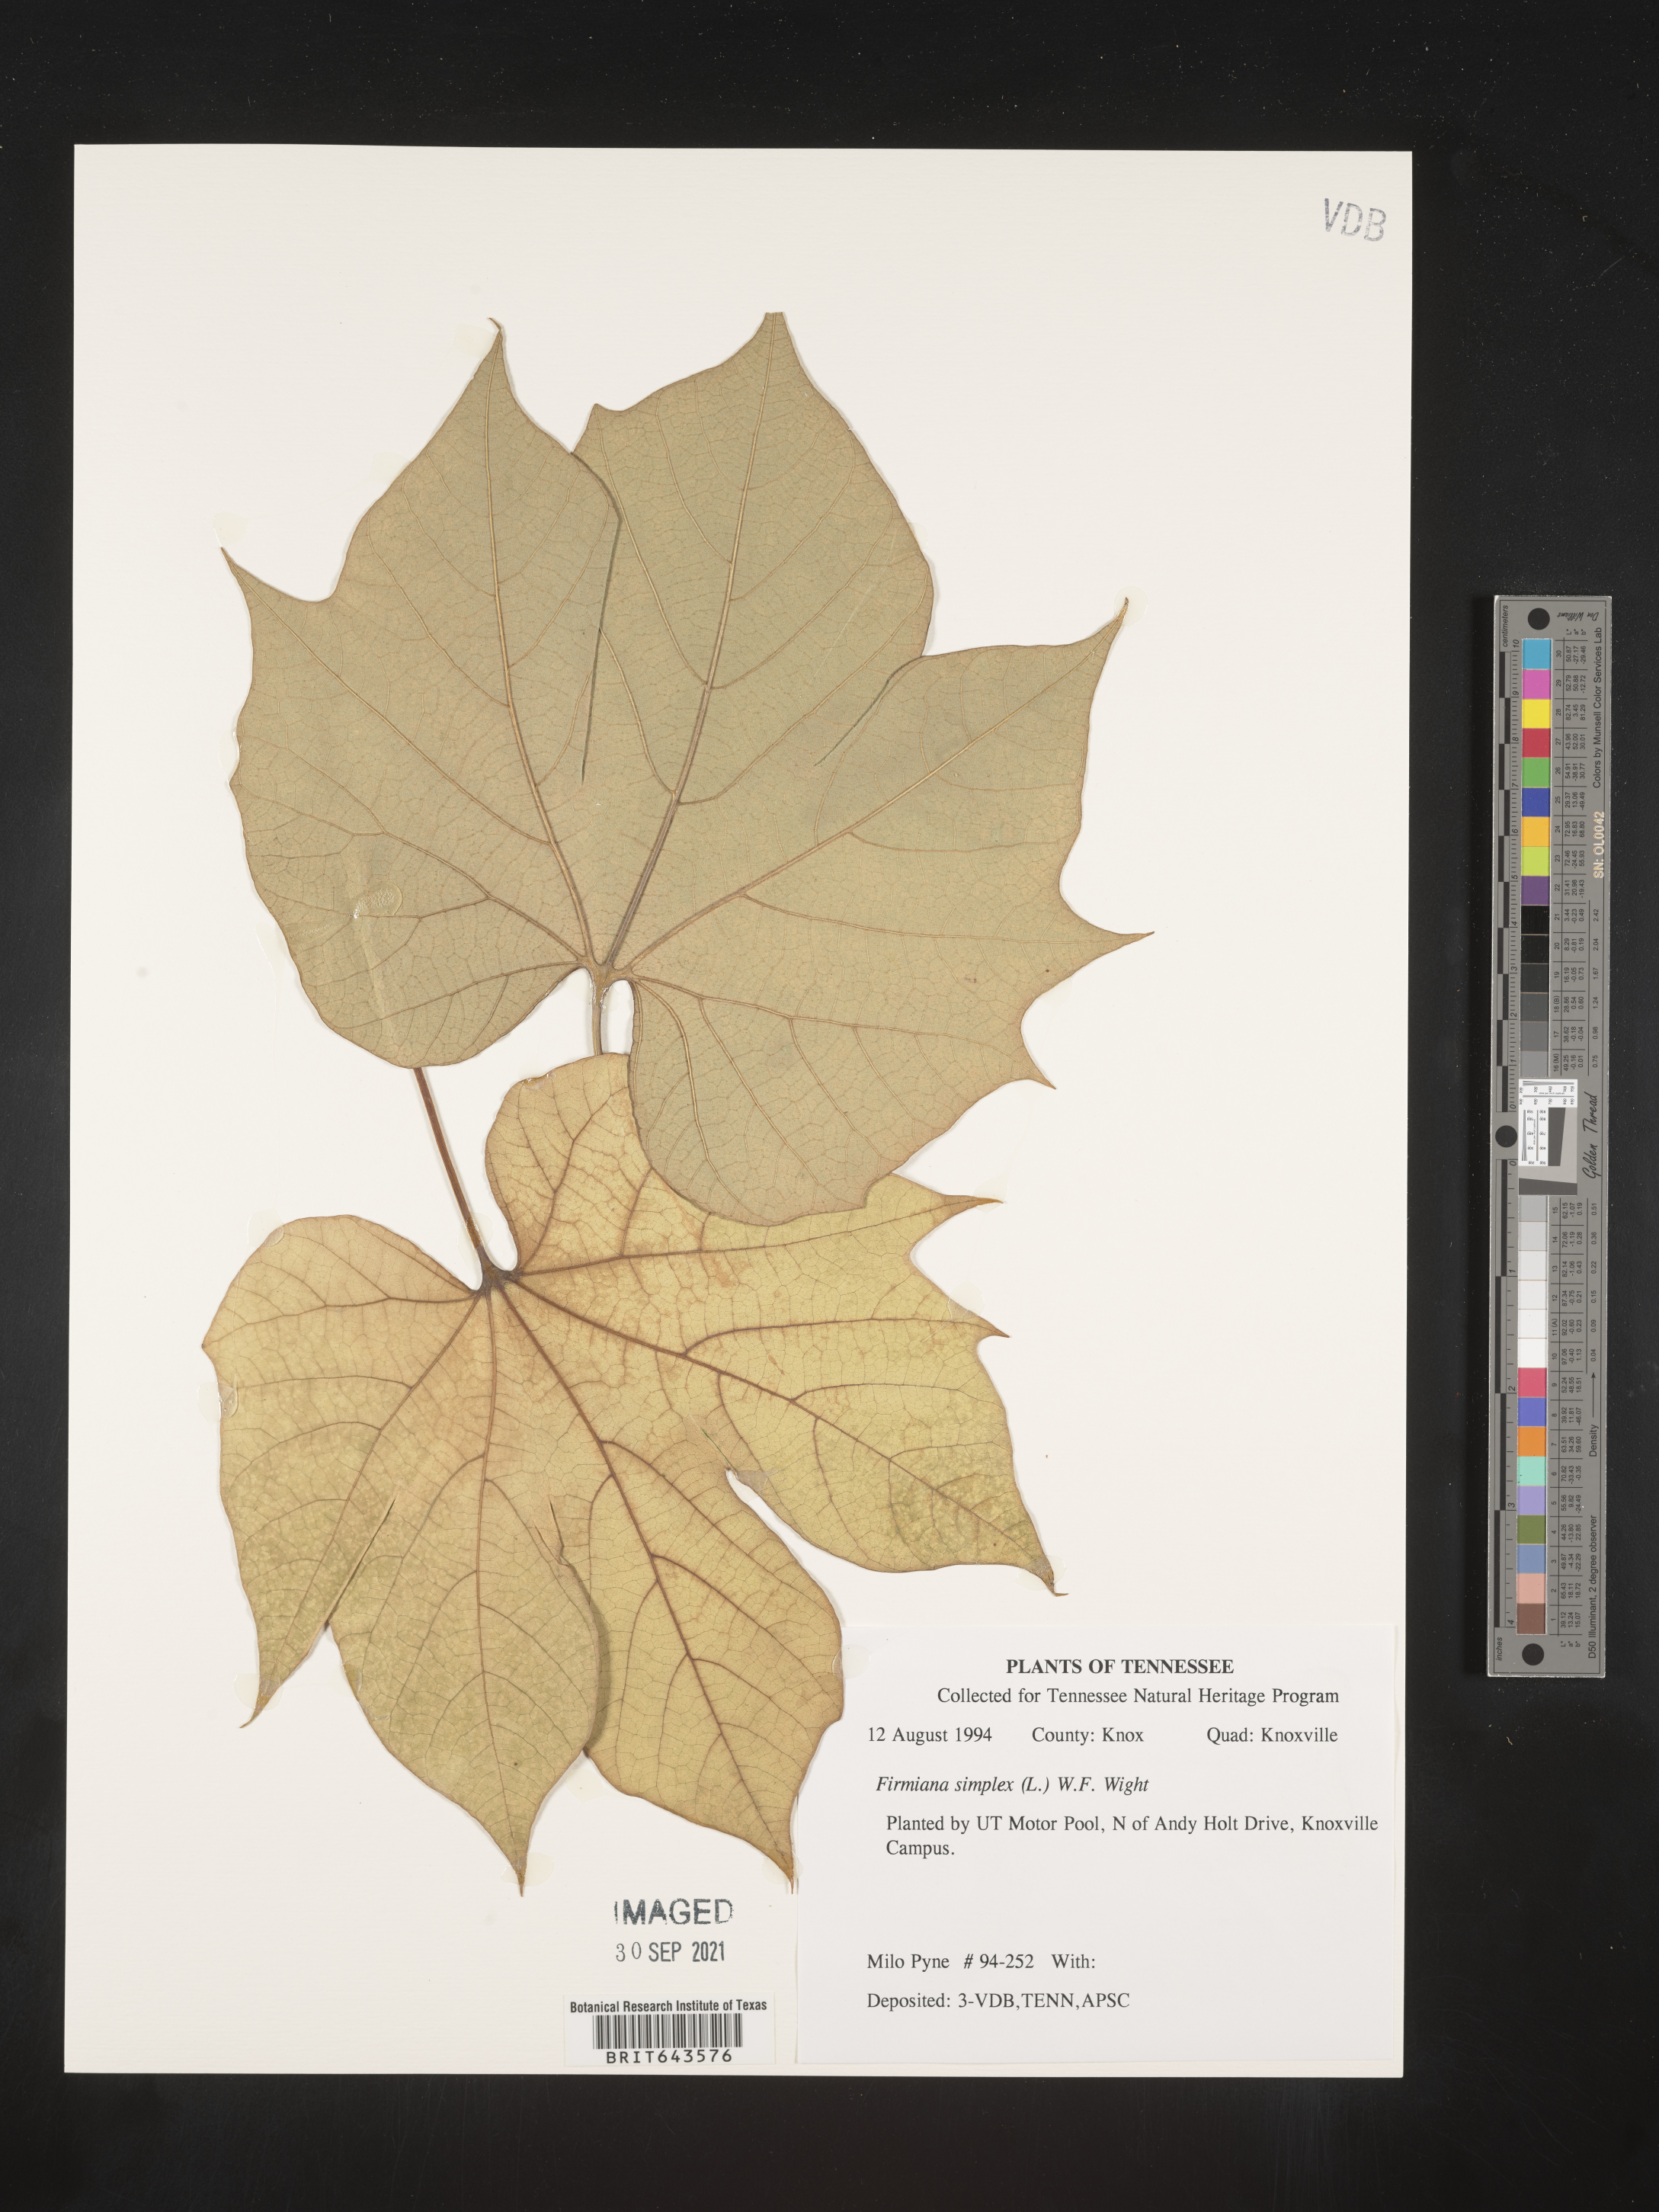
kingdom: Plantae
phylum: Tracheophyta
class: Magnoliopsida
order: Malvales
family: Malvaceae
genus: Firmiana
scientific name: Firmiana
